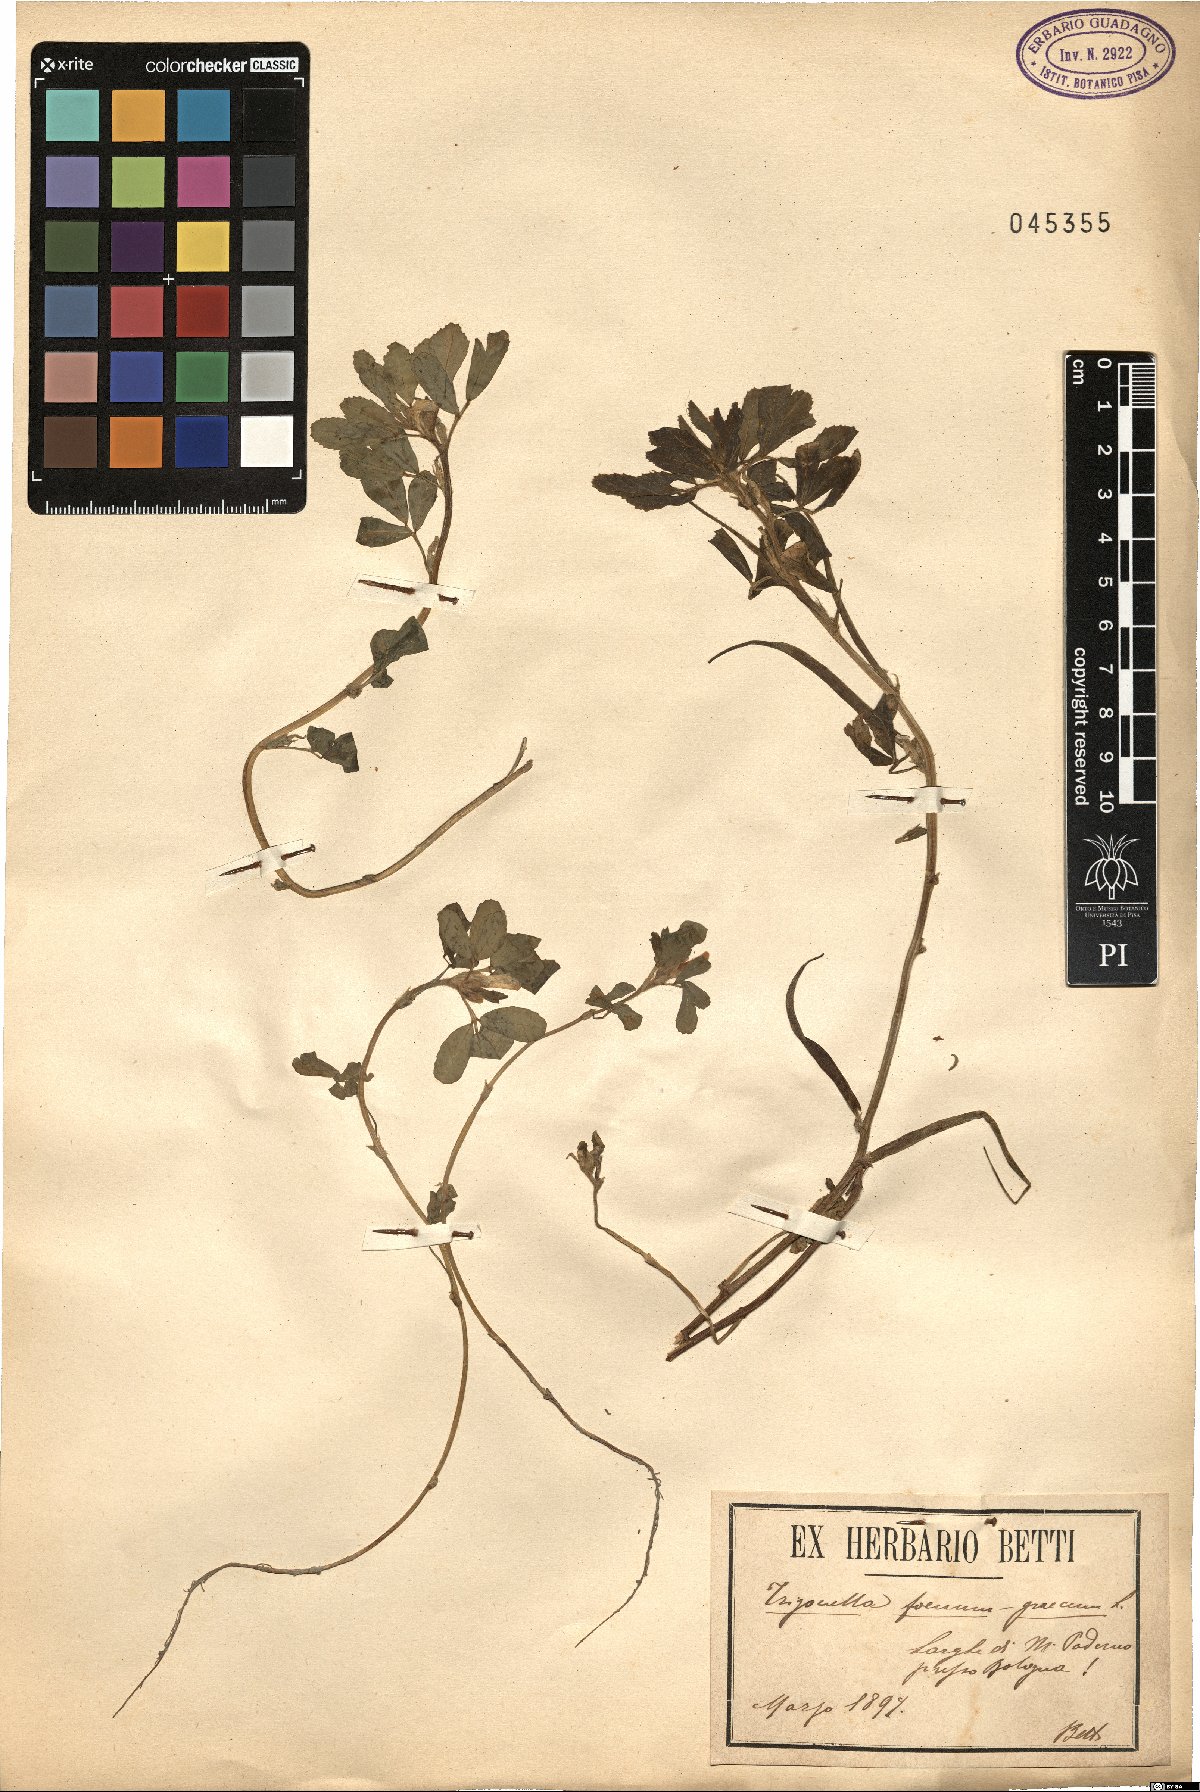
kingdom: Plantae
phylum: Tracheophyta
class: Magnoliopsida
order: Fabales
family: Fabaceae
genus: Trigonella
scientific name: Trigonella foenum-graecum
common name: Fenugreek
